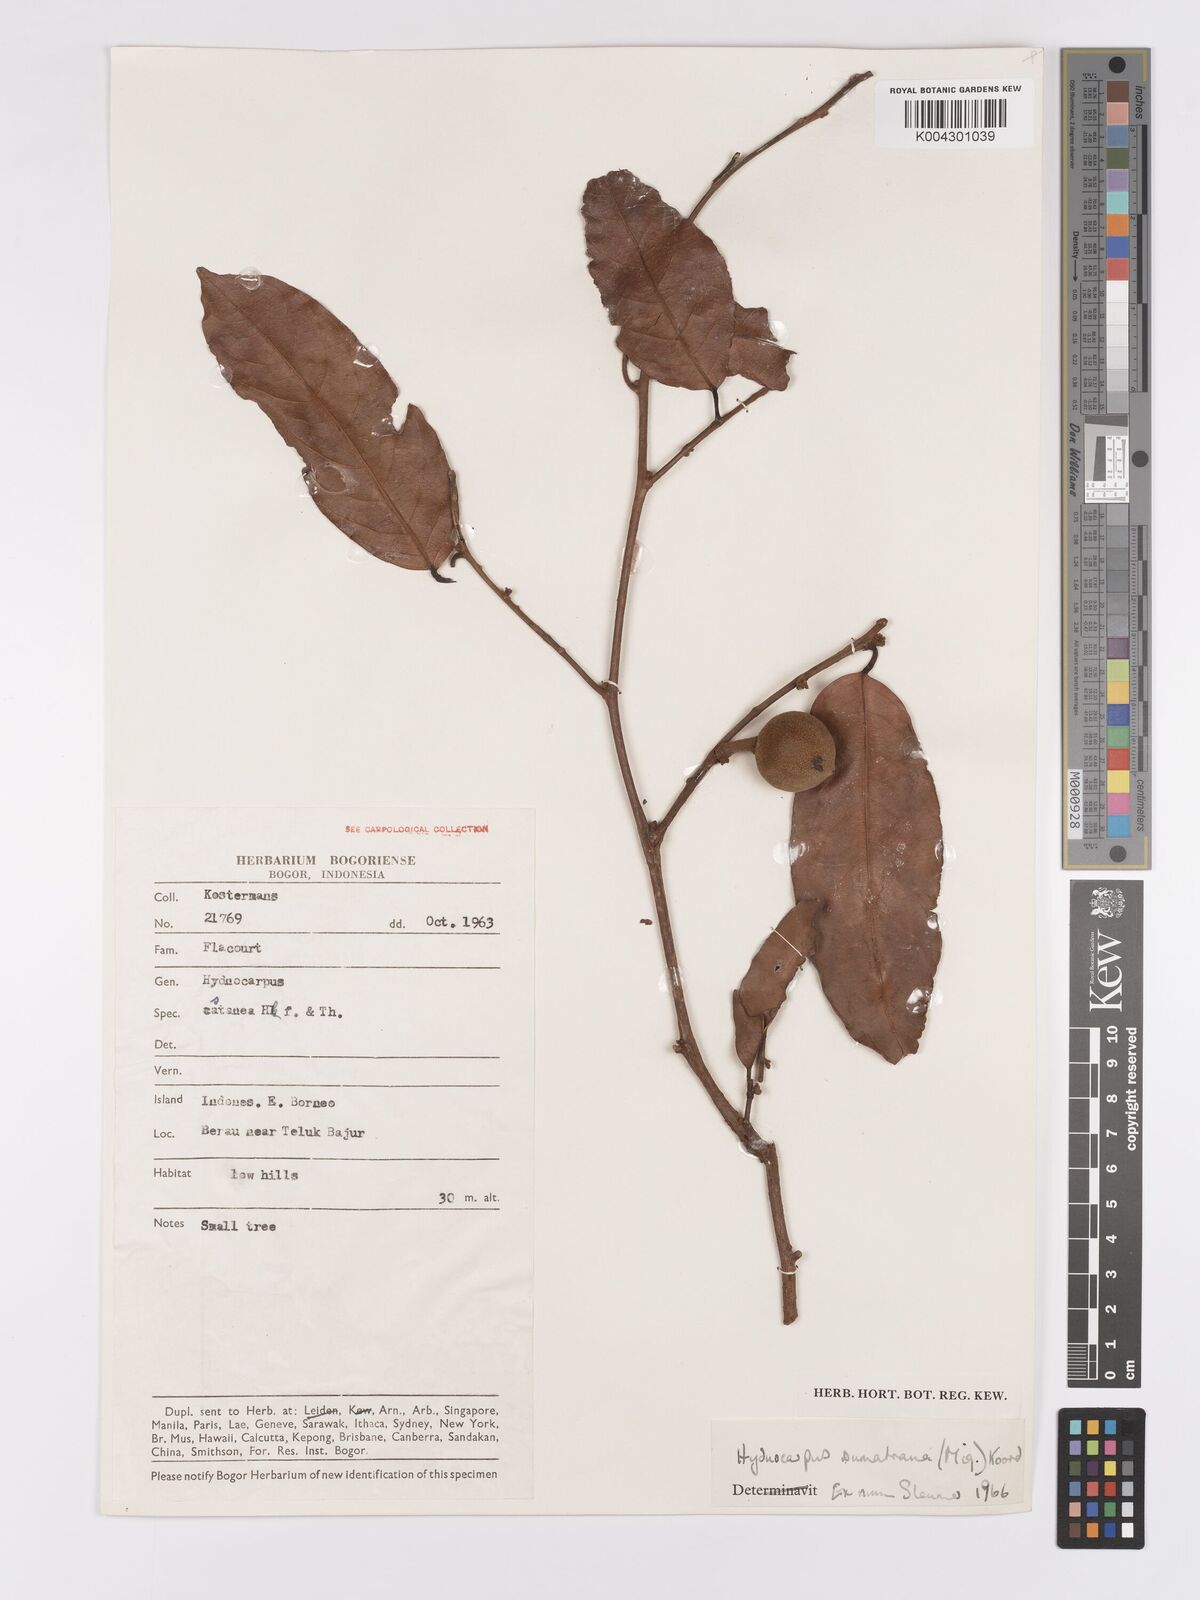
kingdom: Plantae
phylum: Tracheophyta
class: Magnoliopsida
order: Malpighiales
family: Achariaceae
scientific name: Achariaceae
